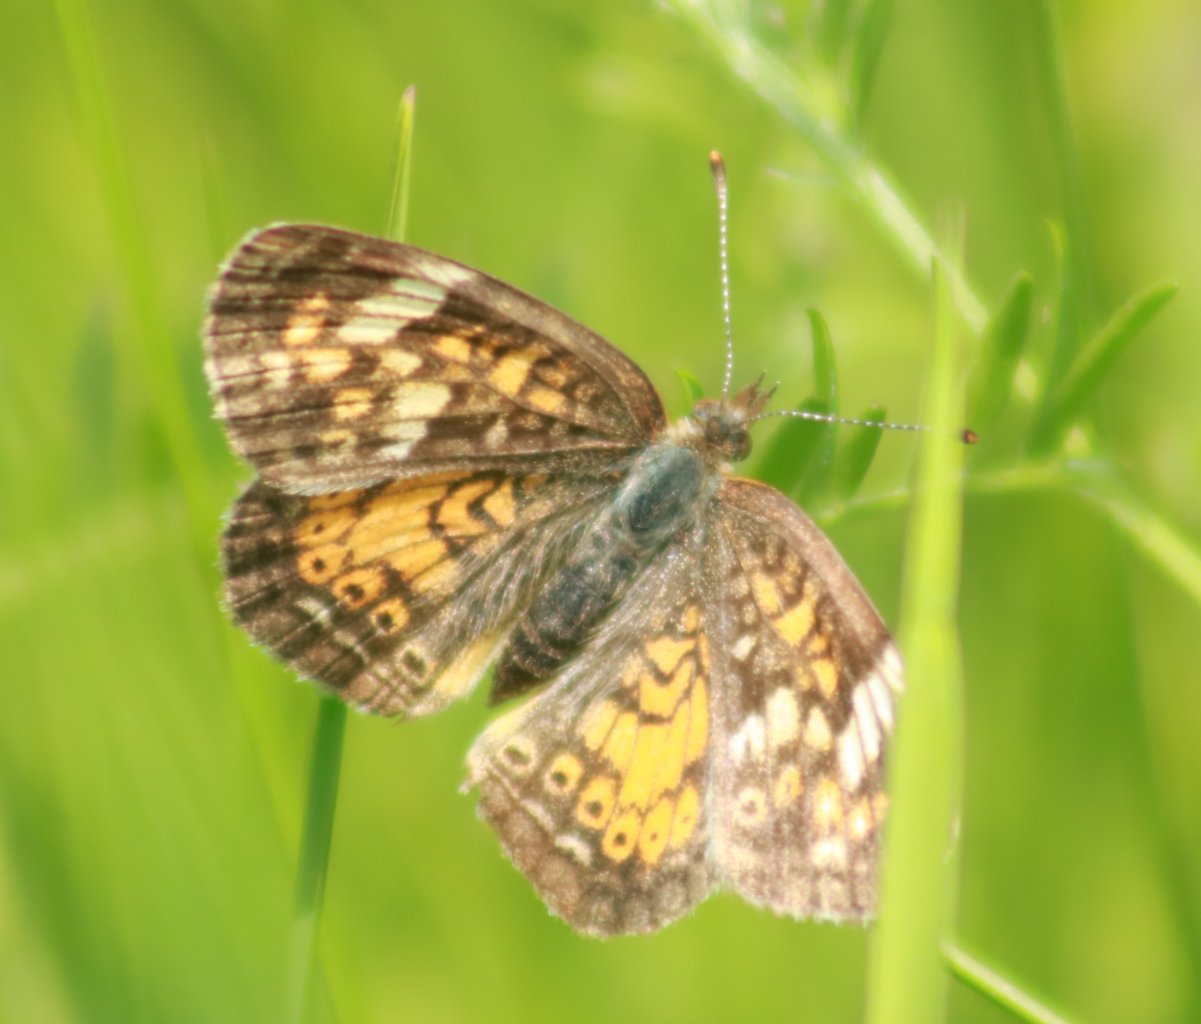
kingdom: Animalia
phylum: Arthropoda
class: Insecta
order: Lepidoptera
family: Nymphalidae
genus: Phyciodes
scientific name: Phyciodes tharos
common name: Northern Crescent
